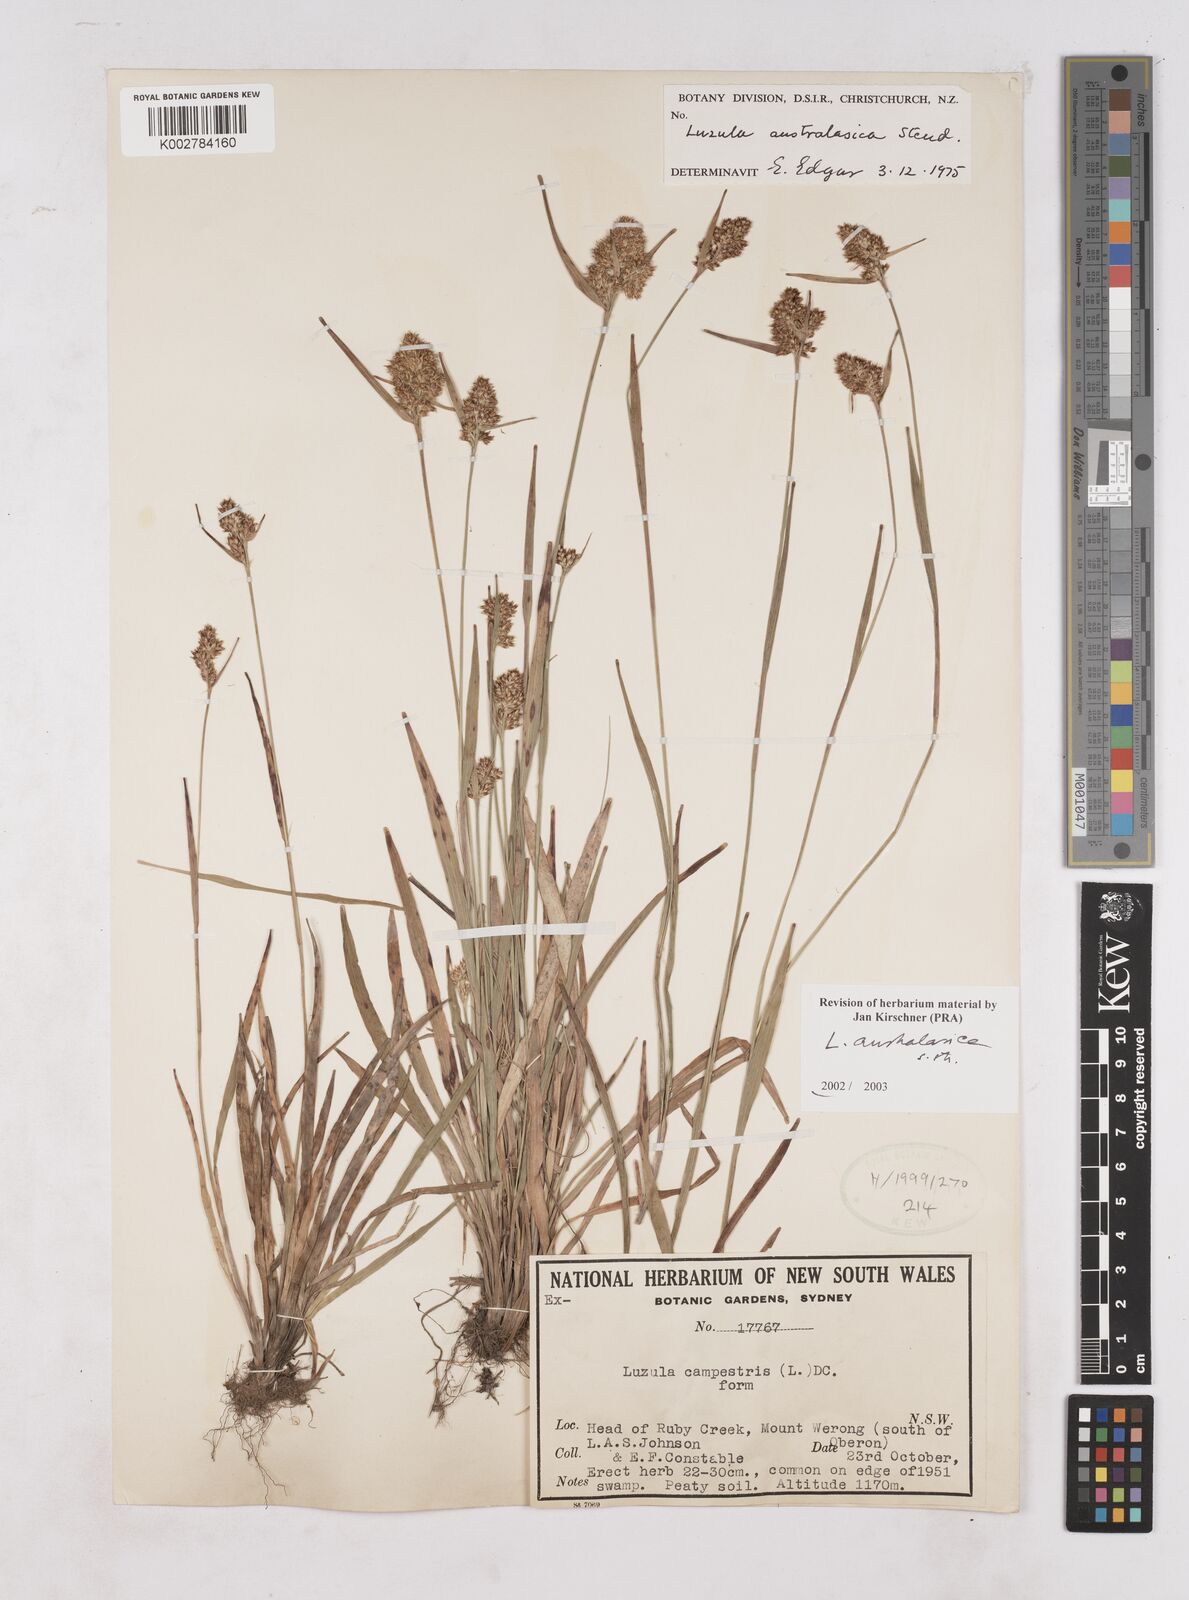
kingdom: Plantae
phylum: Tracheophyta
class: Liliopsida
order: Poales
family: Juncaceae
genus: Luzula
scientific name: Luzula australasica
